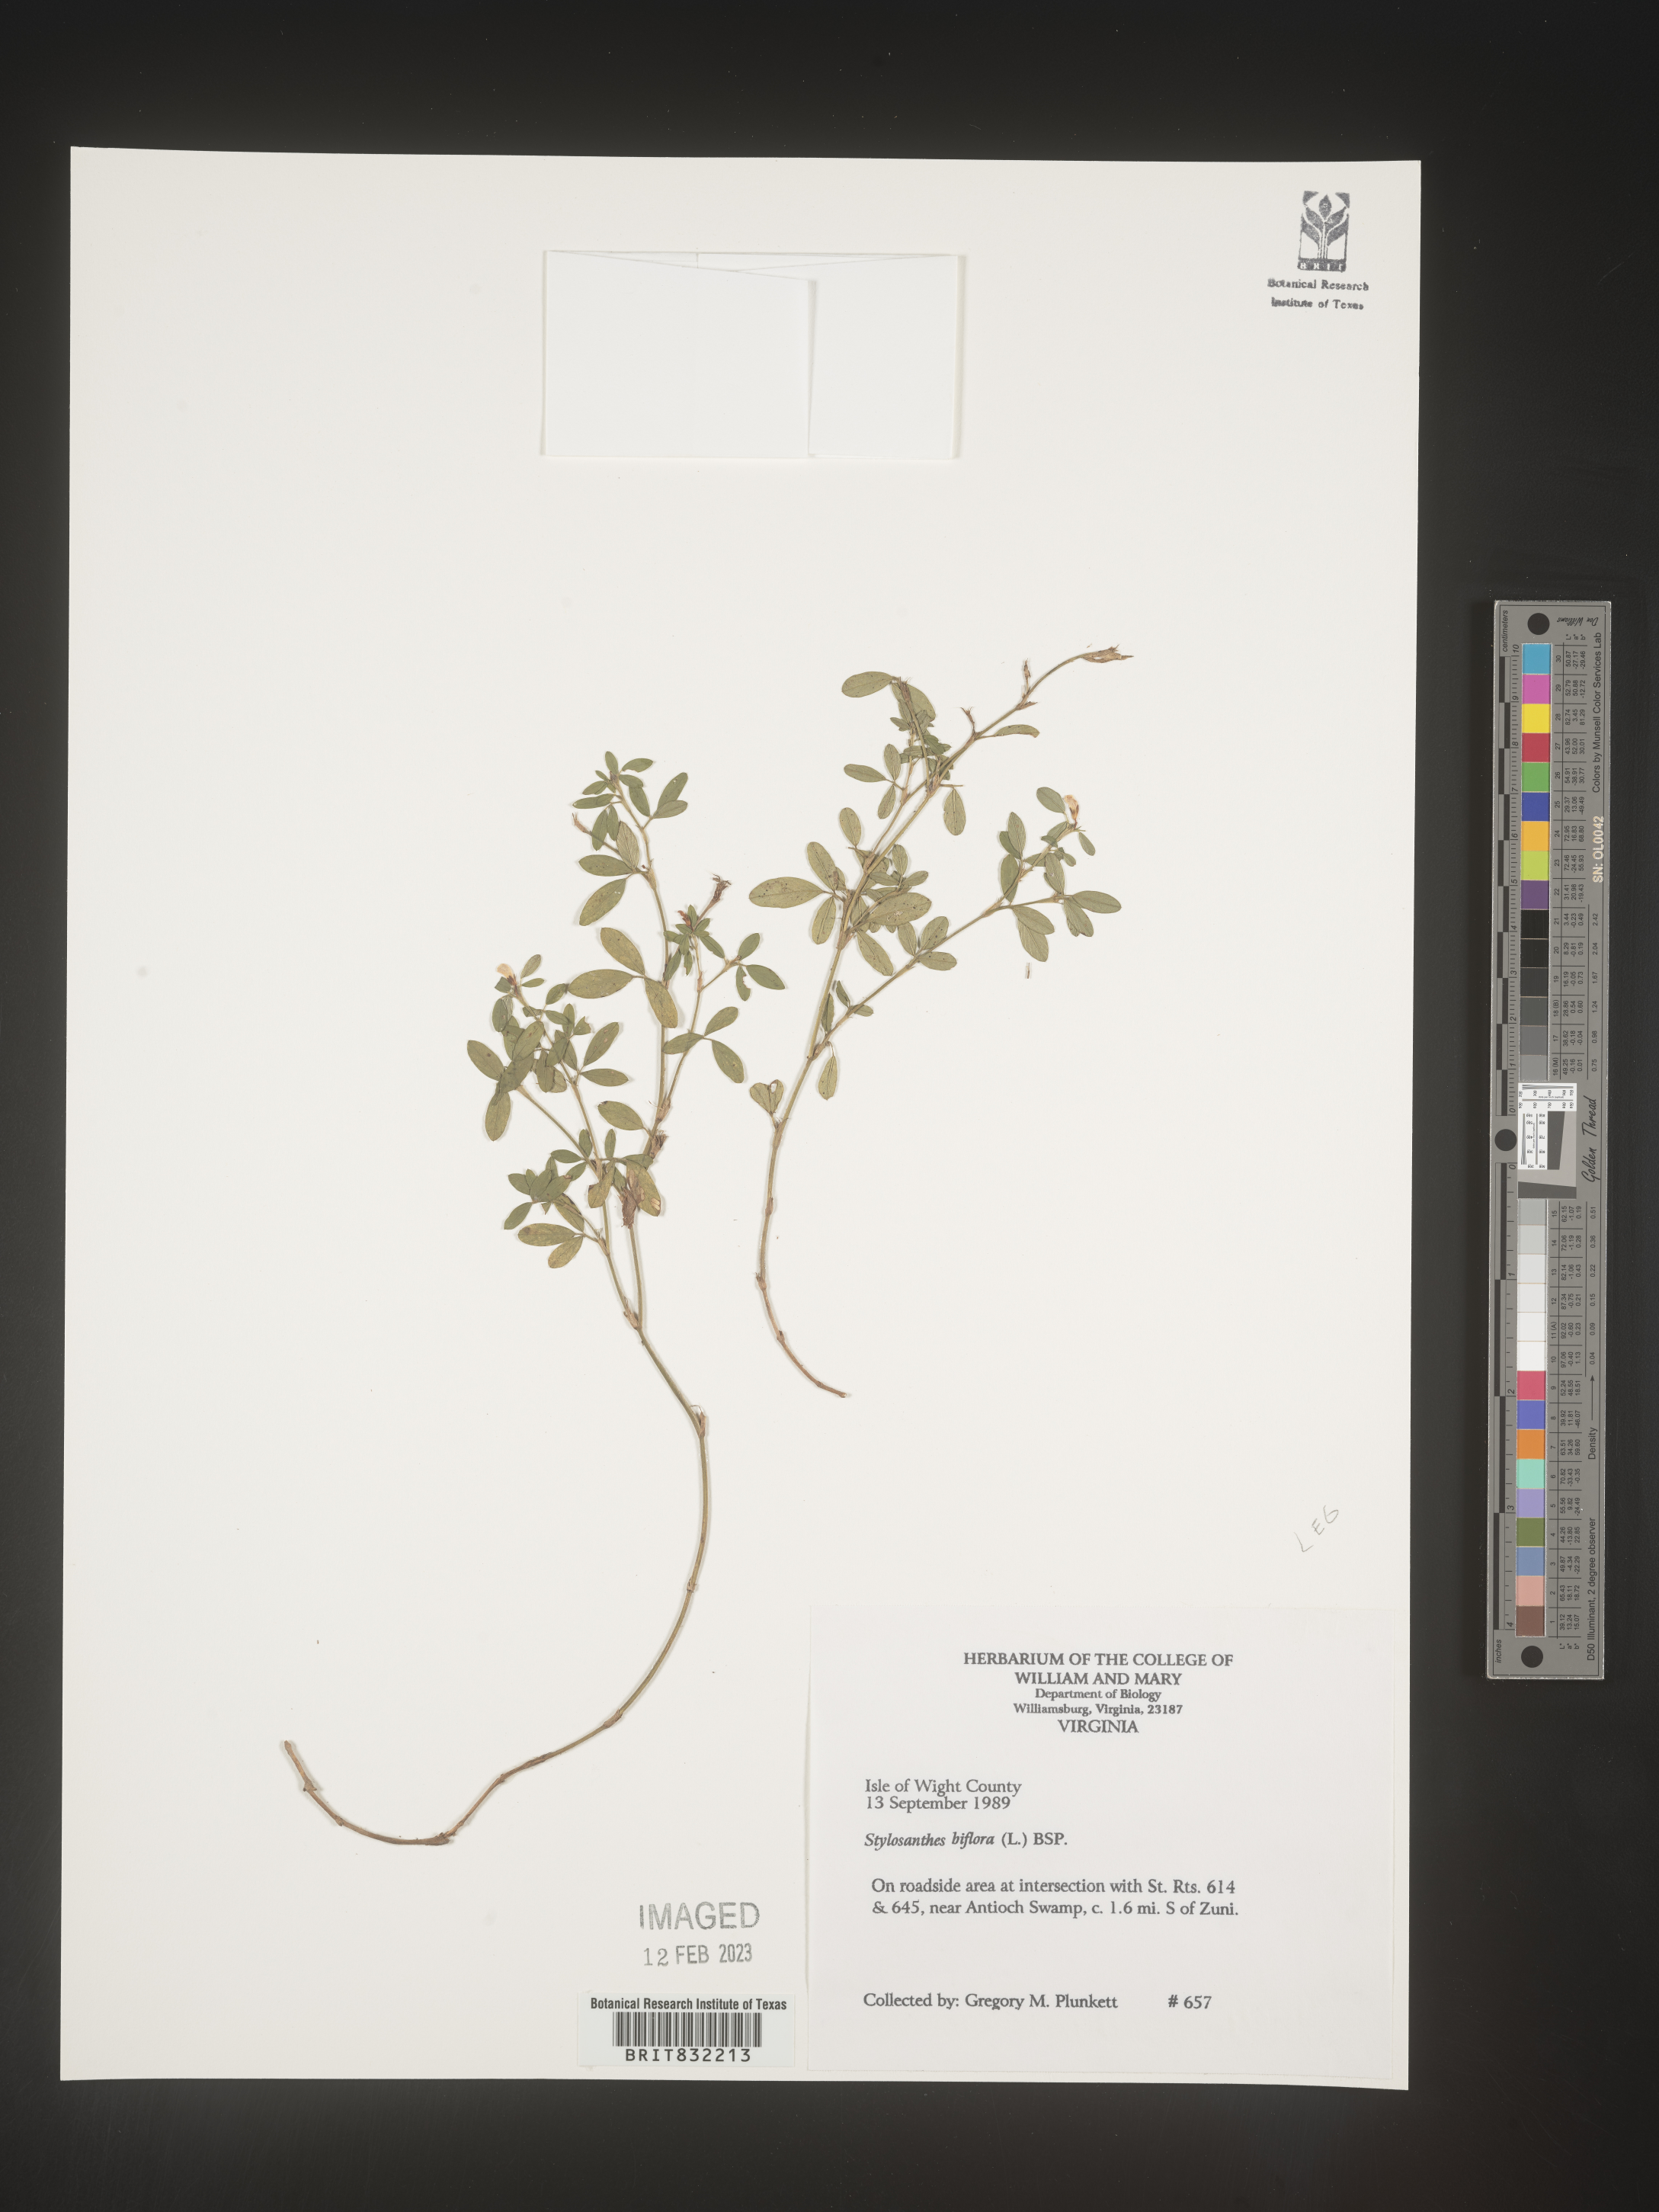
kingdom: Plantae
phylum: Tracheophyta
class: Magnoliopsida
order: Fabales
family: Fabaceae
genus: Stylosanthes
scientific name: Stylosanthes biflora
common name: Two-flower pencil-flower
